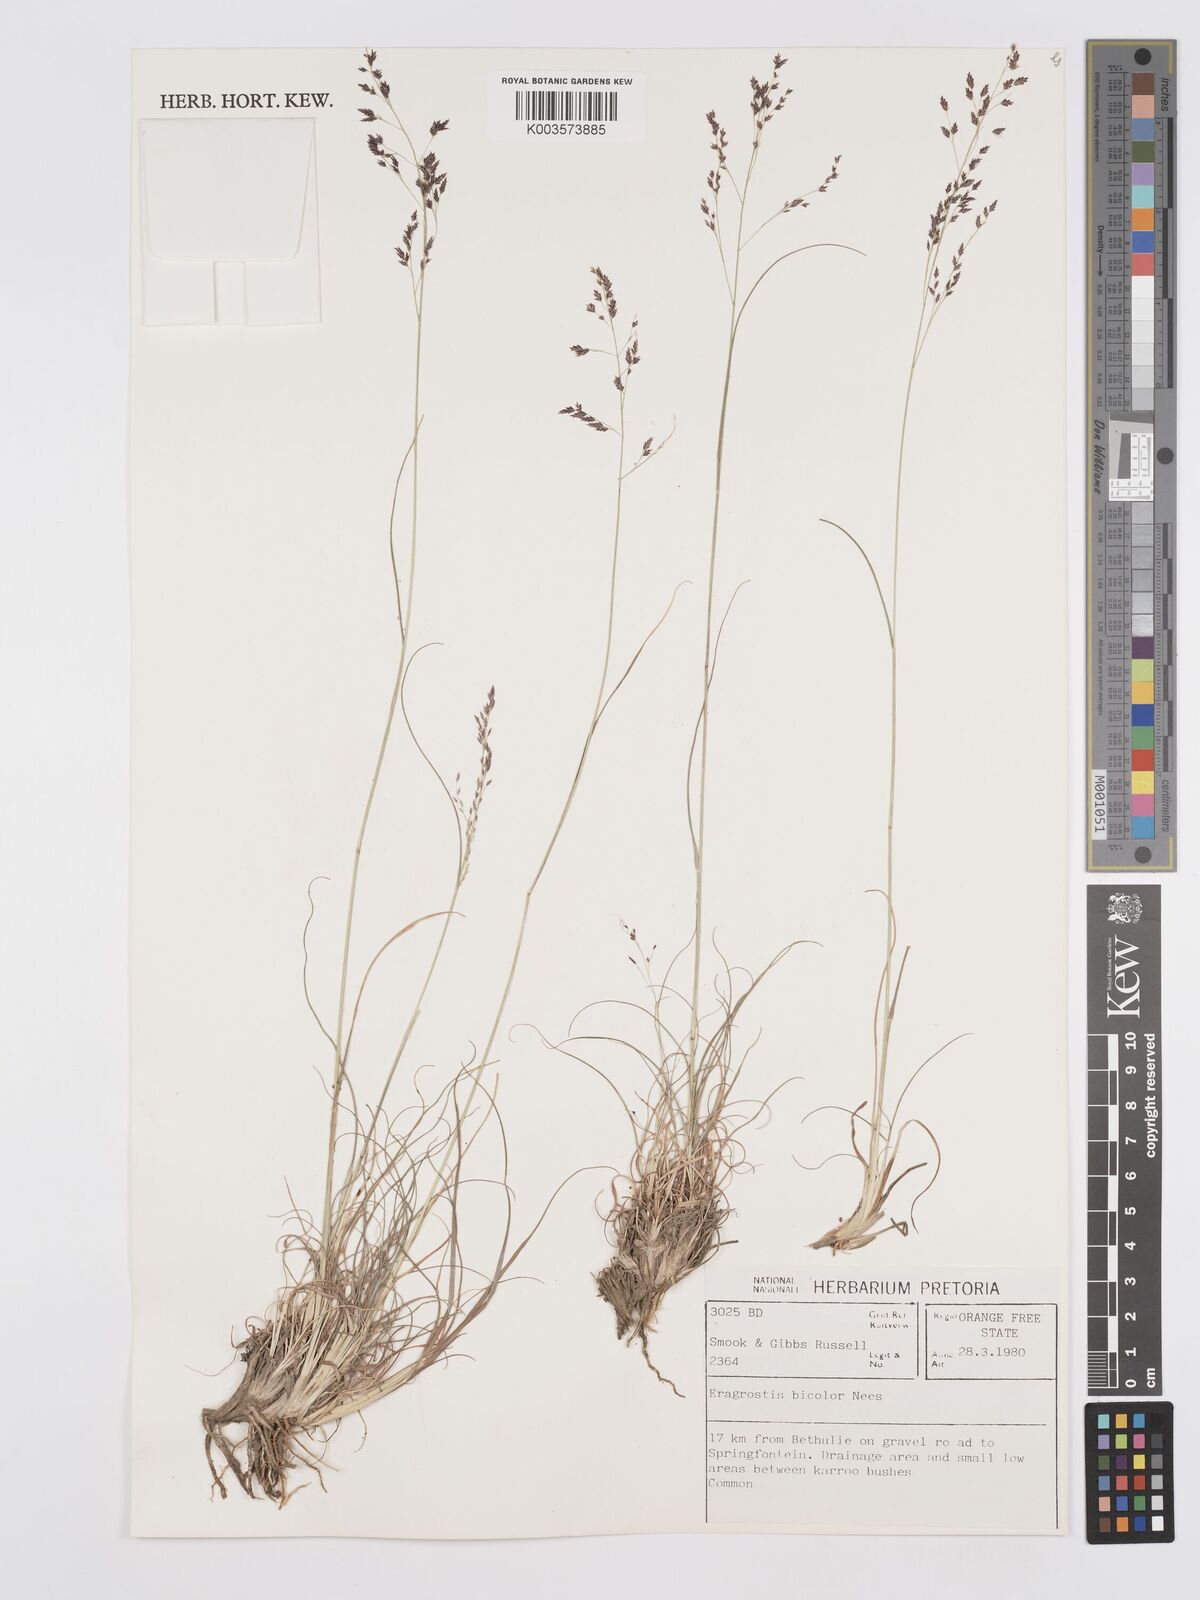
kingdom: Plantae
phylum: Tracheophyta
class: Liliopsida
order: Poales
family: Poaceae
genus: Eragrostis
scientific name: Eragrostis
